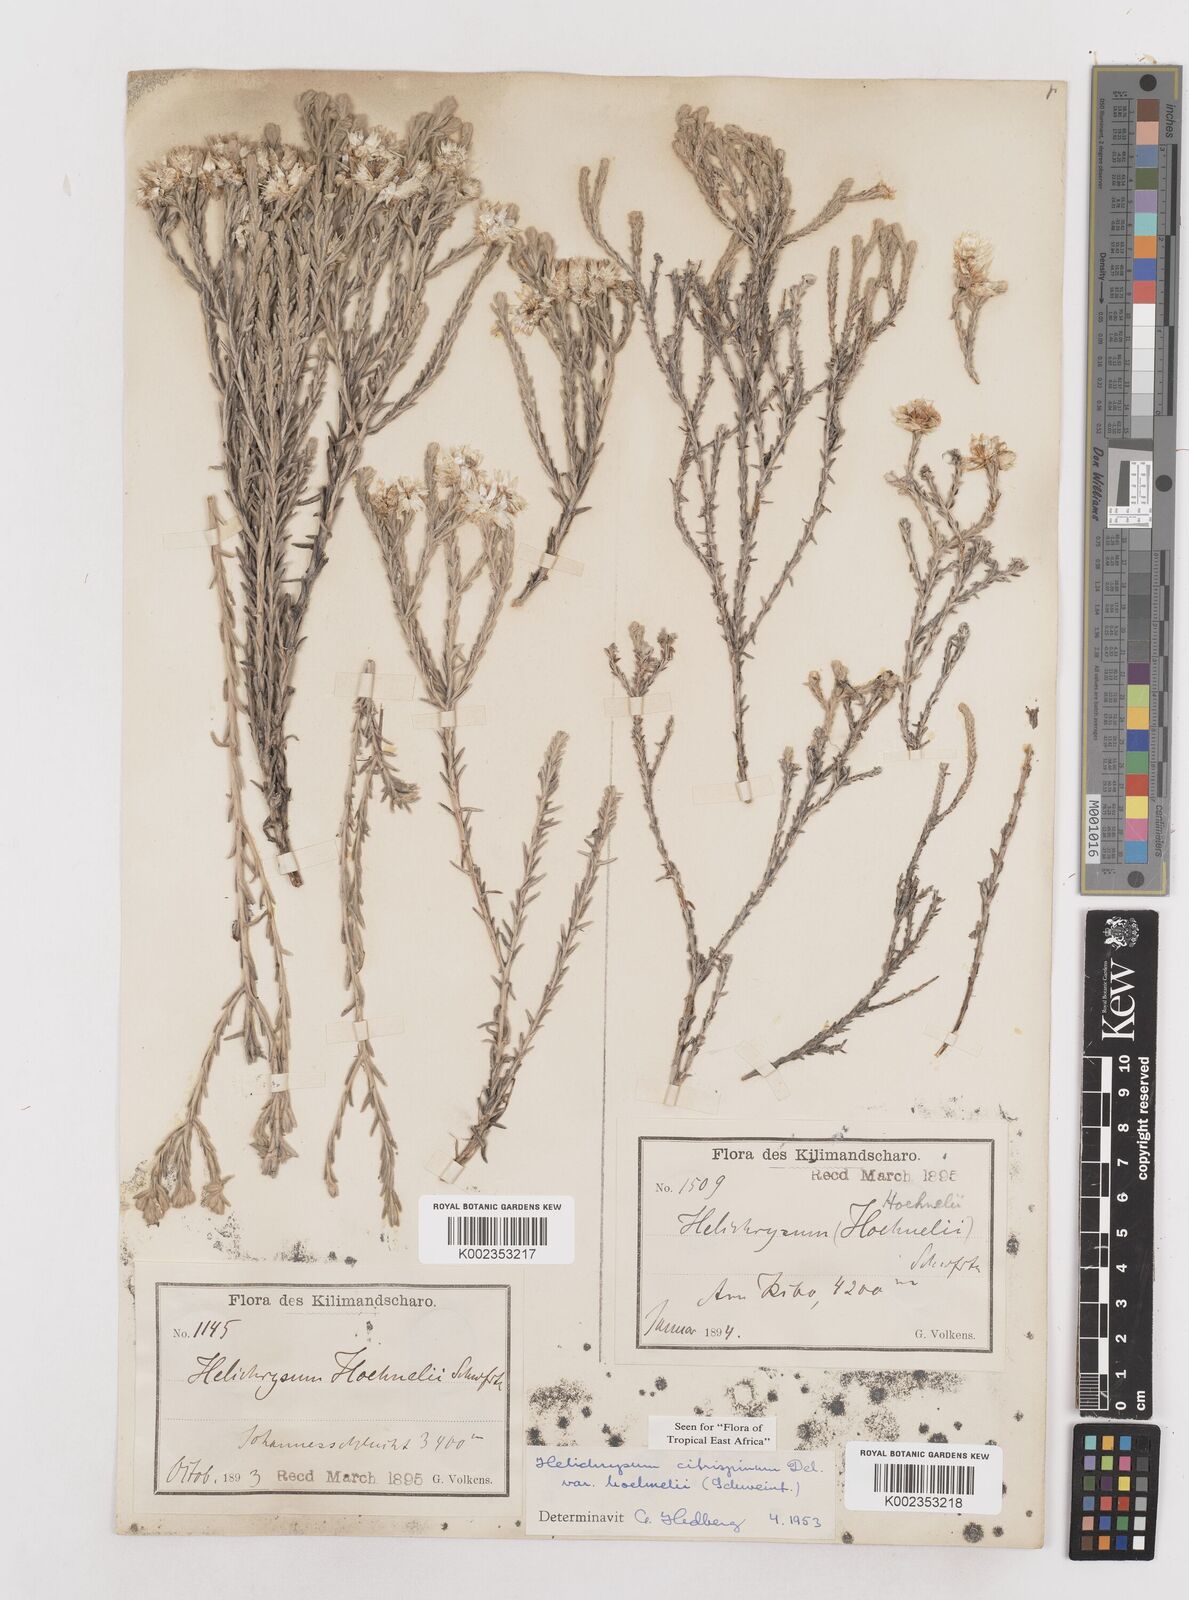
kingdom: Plantae
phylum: Tracheophyta
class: Magnoliopsida
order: Asterales
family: Asteraceae
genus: Helichrysum
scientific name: Helichrysum citrispinum
